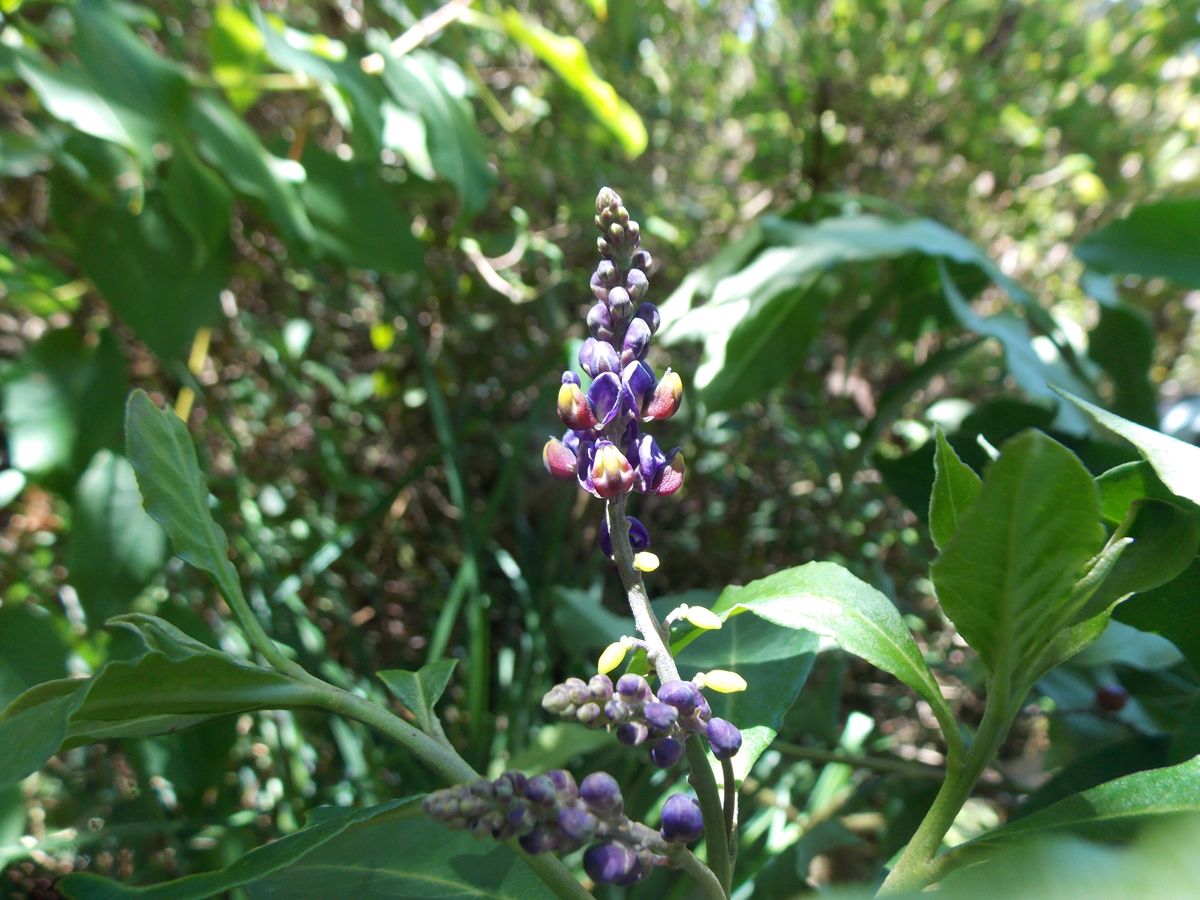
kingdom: Plantae
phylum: Tracheophyta
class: Magnoliopsida
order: Fabales
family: Polygalaceae
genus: Monnina
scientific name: Monnina sylvatica
